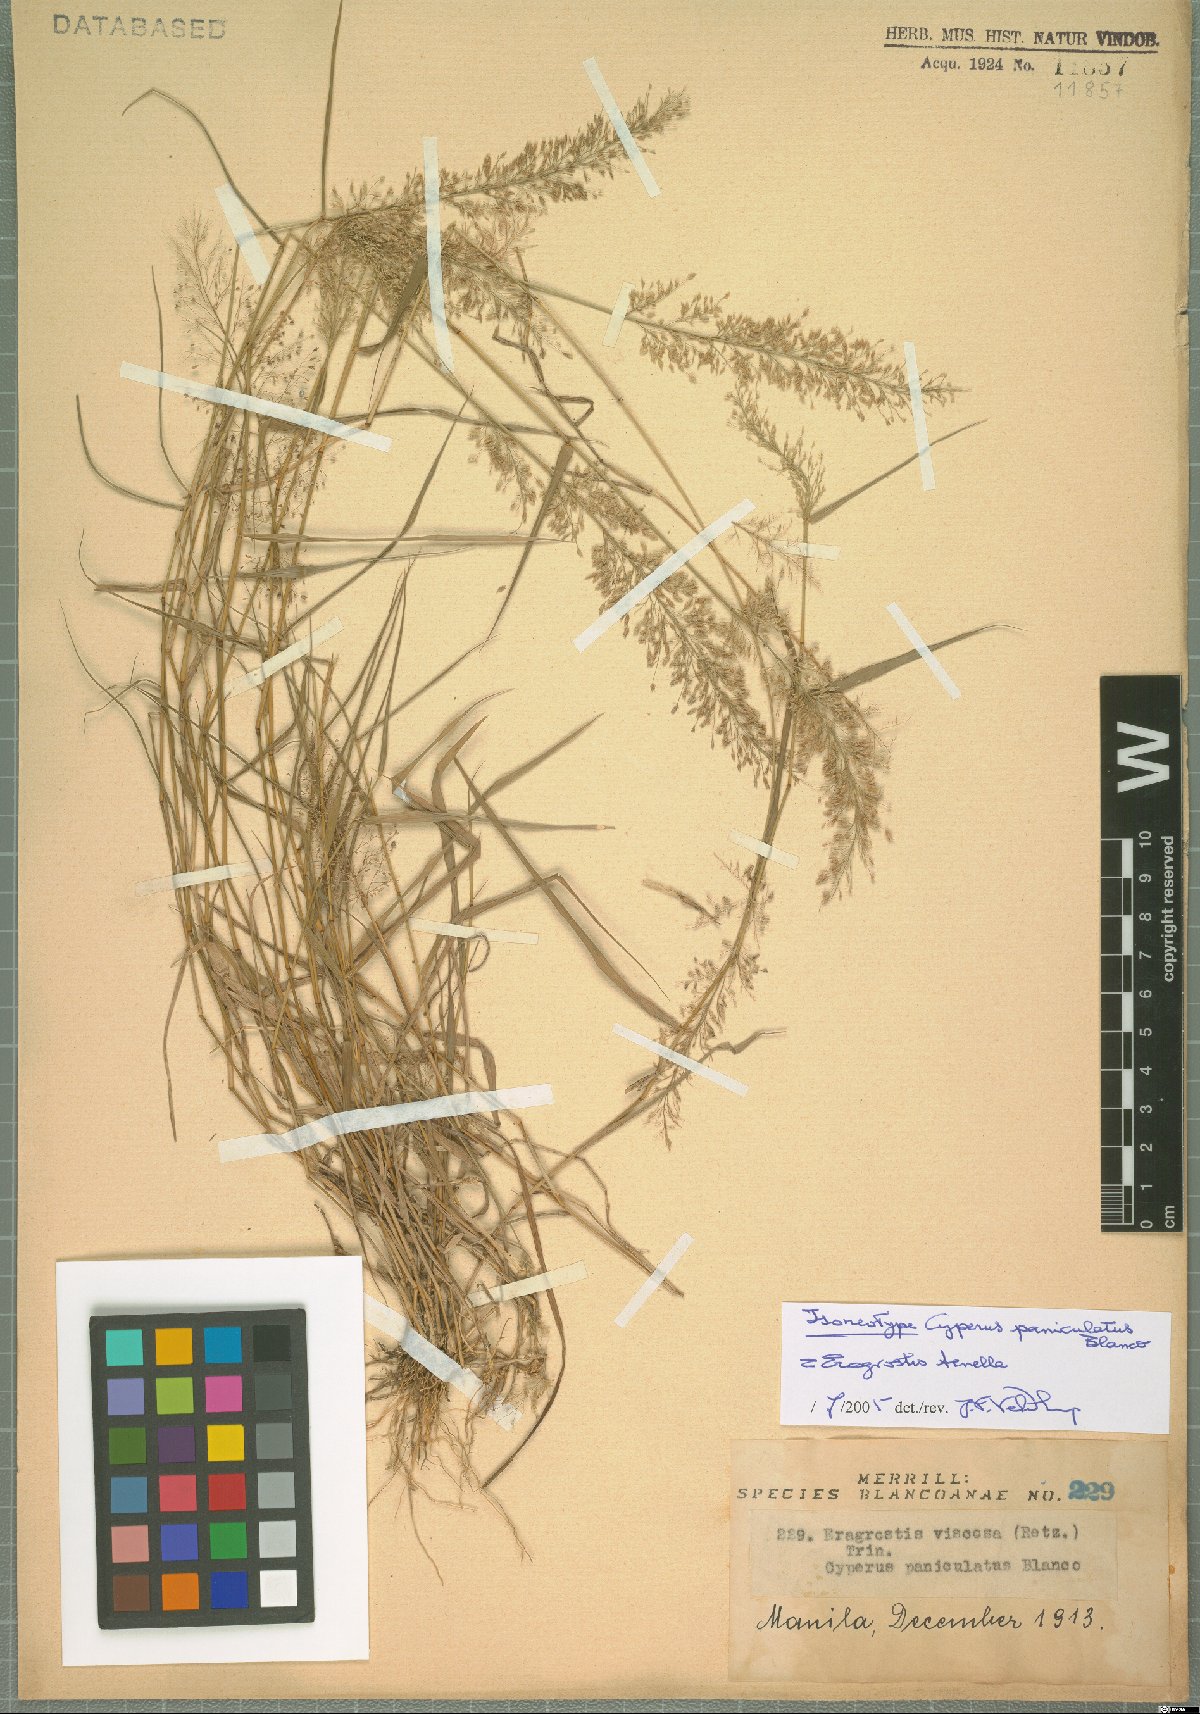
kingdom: Plantae
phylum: Tracheophyta
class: Liliopsida
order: Poales
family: Poaceae
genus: Eragrostis
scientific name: Eragrostis tenella
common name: Japanese lovegrass
